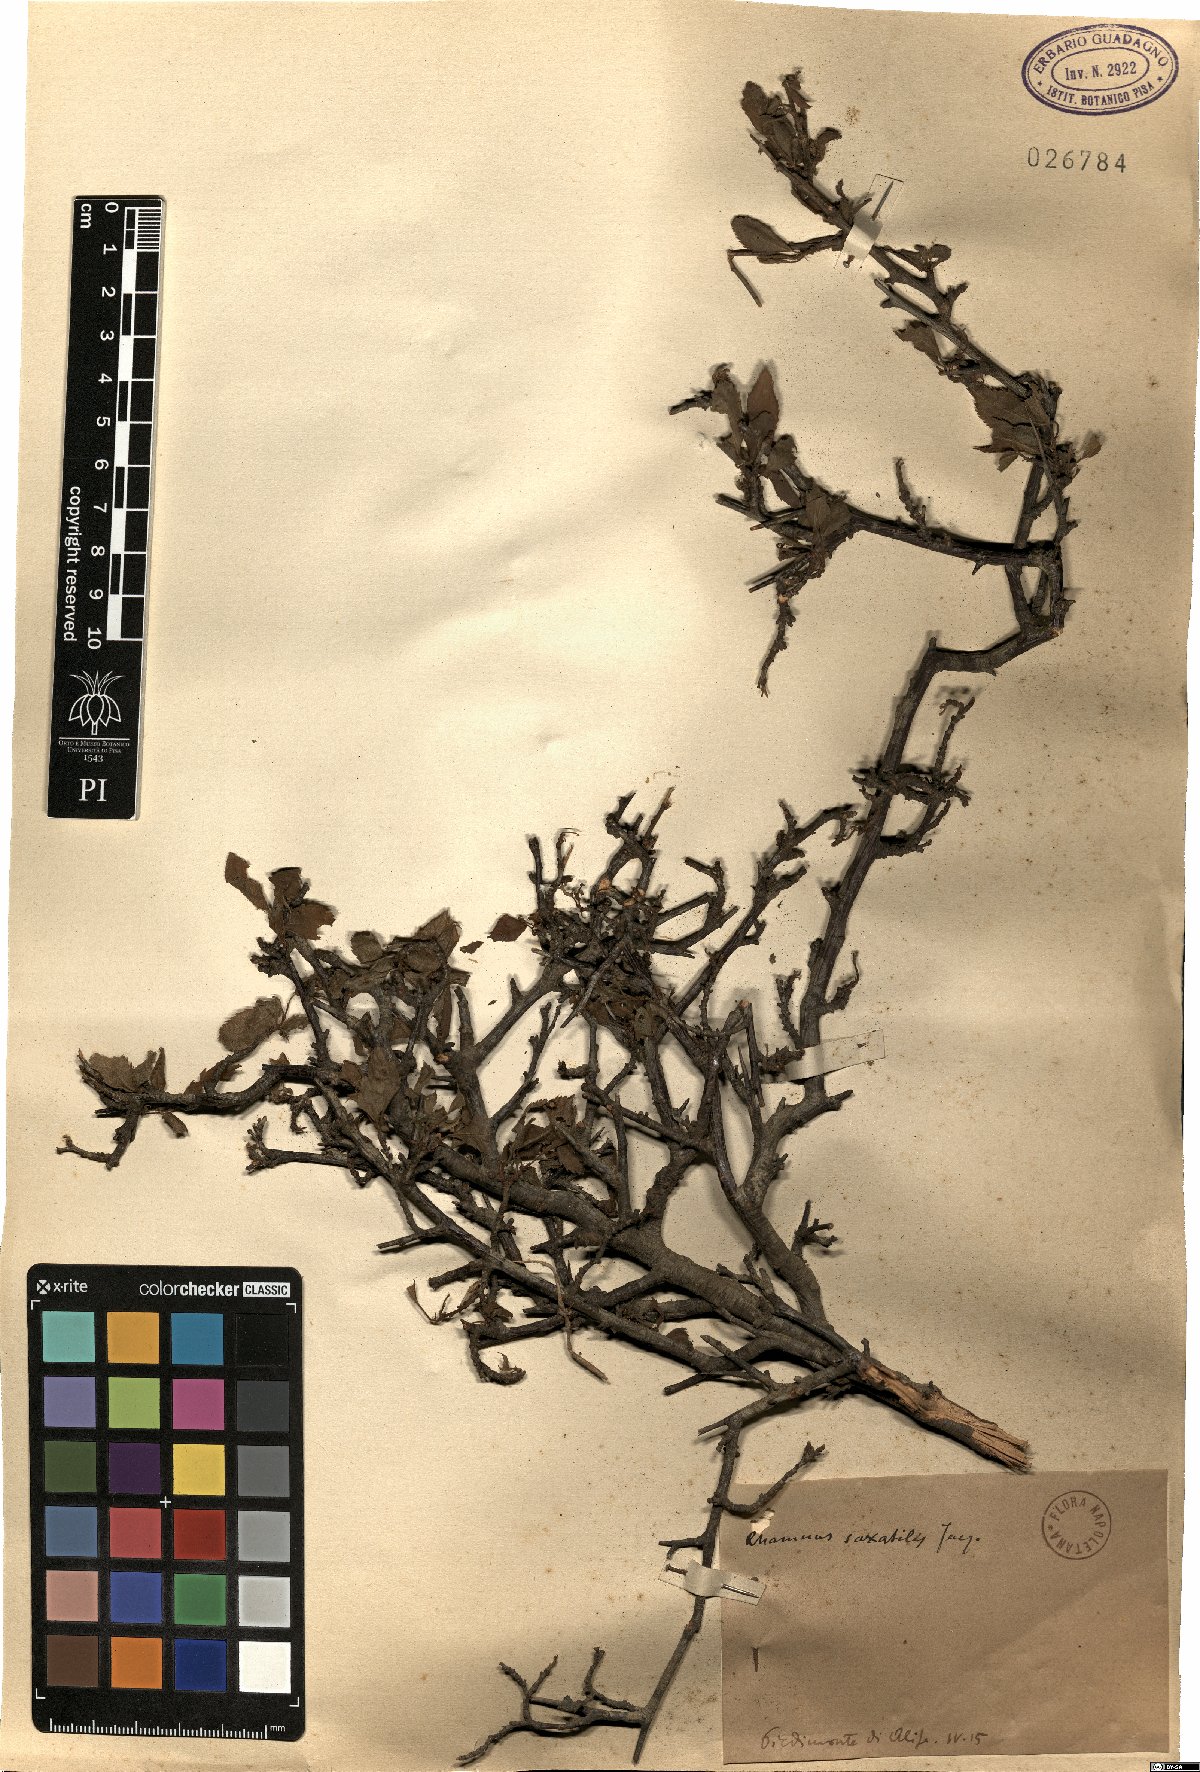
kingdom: Plantae
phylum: Tracheophyta
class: Magnoliopsida
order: Rosales
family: Rhamnaceae
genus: Rhamnus
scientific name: Rhamnus saxatilis
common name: Rock buckthorn
